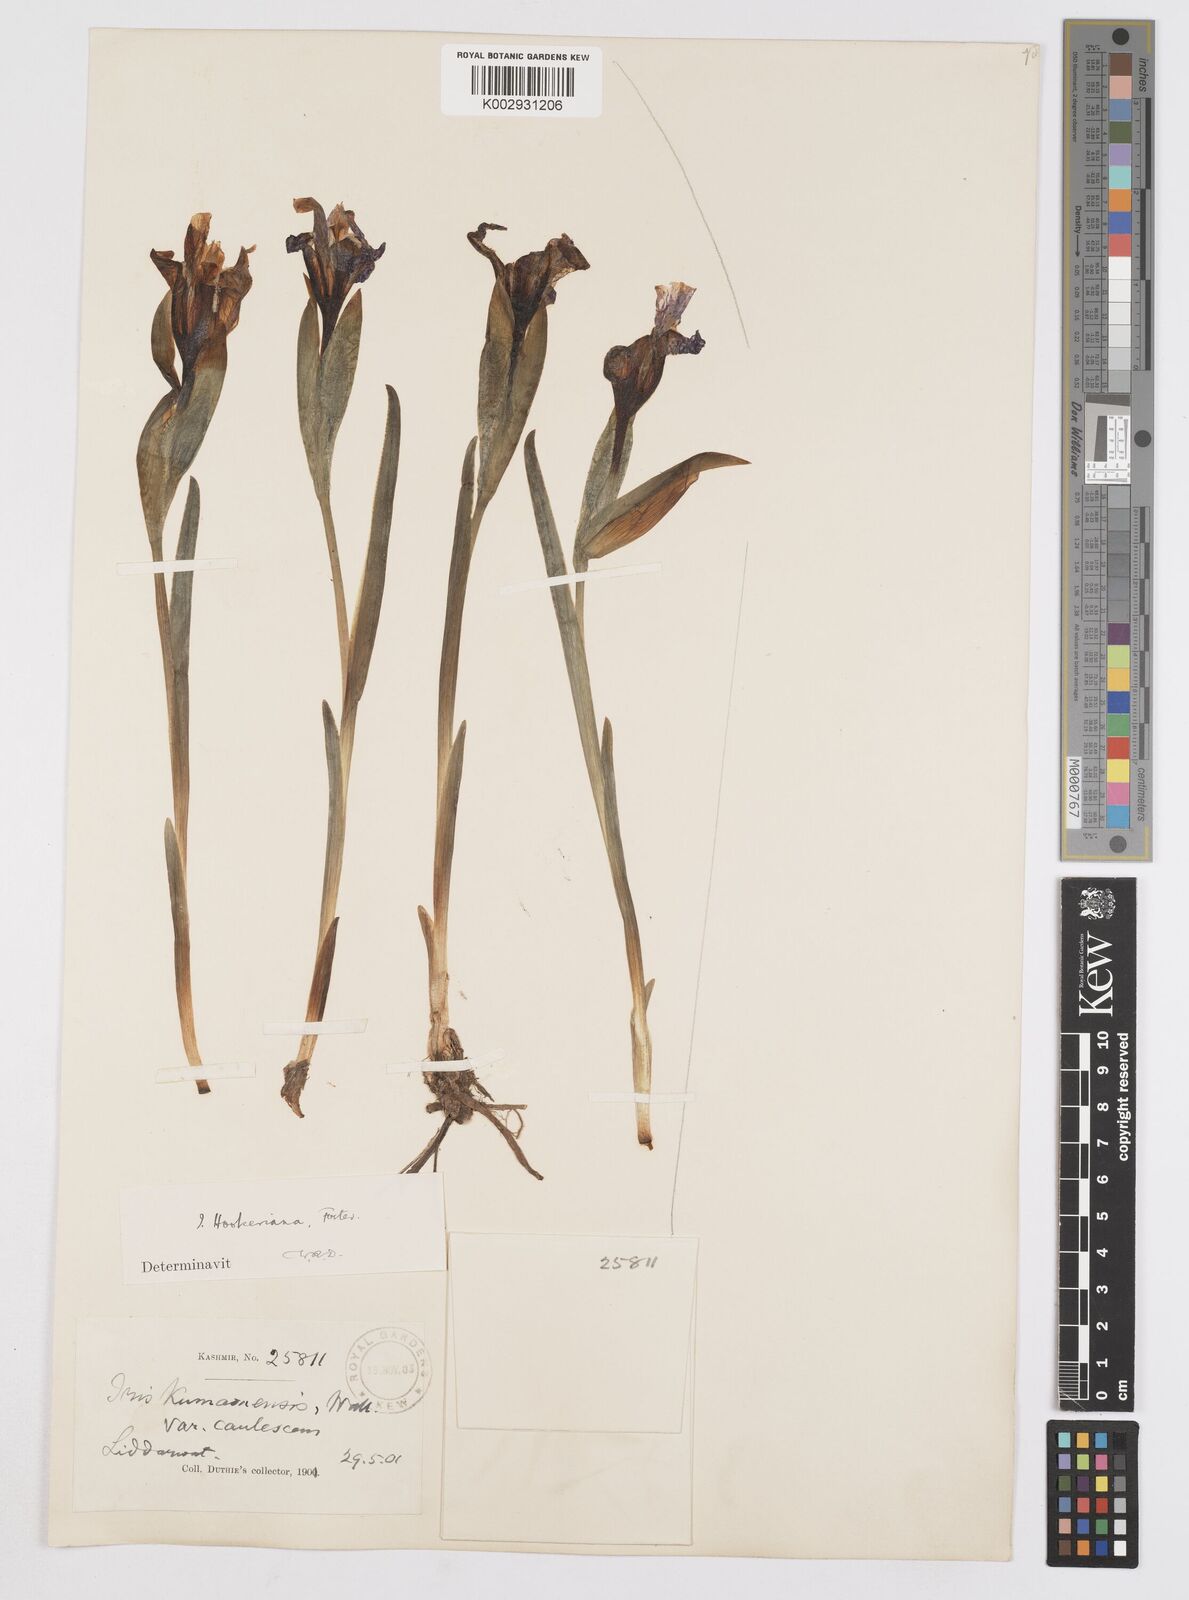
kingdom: Plantae
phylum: Tracheophyta
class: Liliopsida
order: Asparagales
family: Iridaceae
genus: Iris
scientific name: Iris hookeriana
